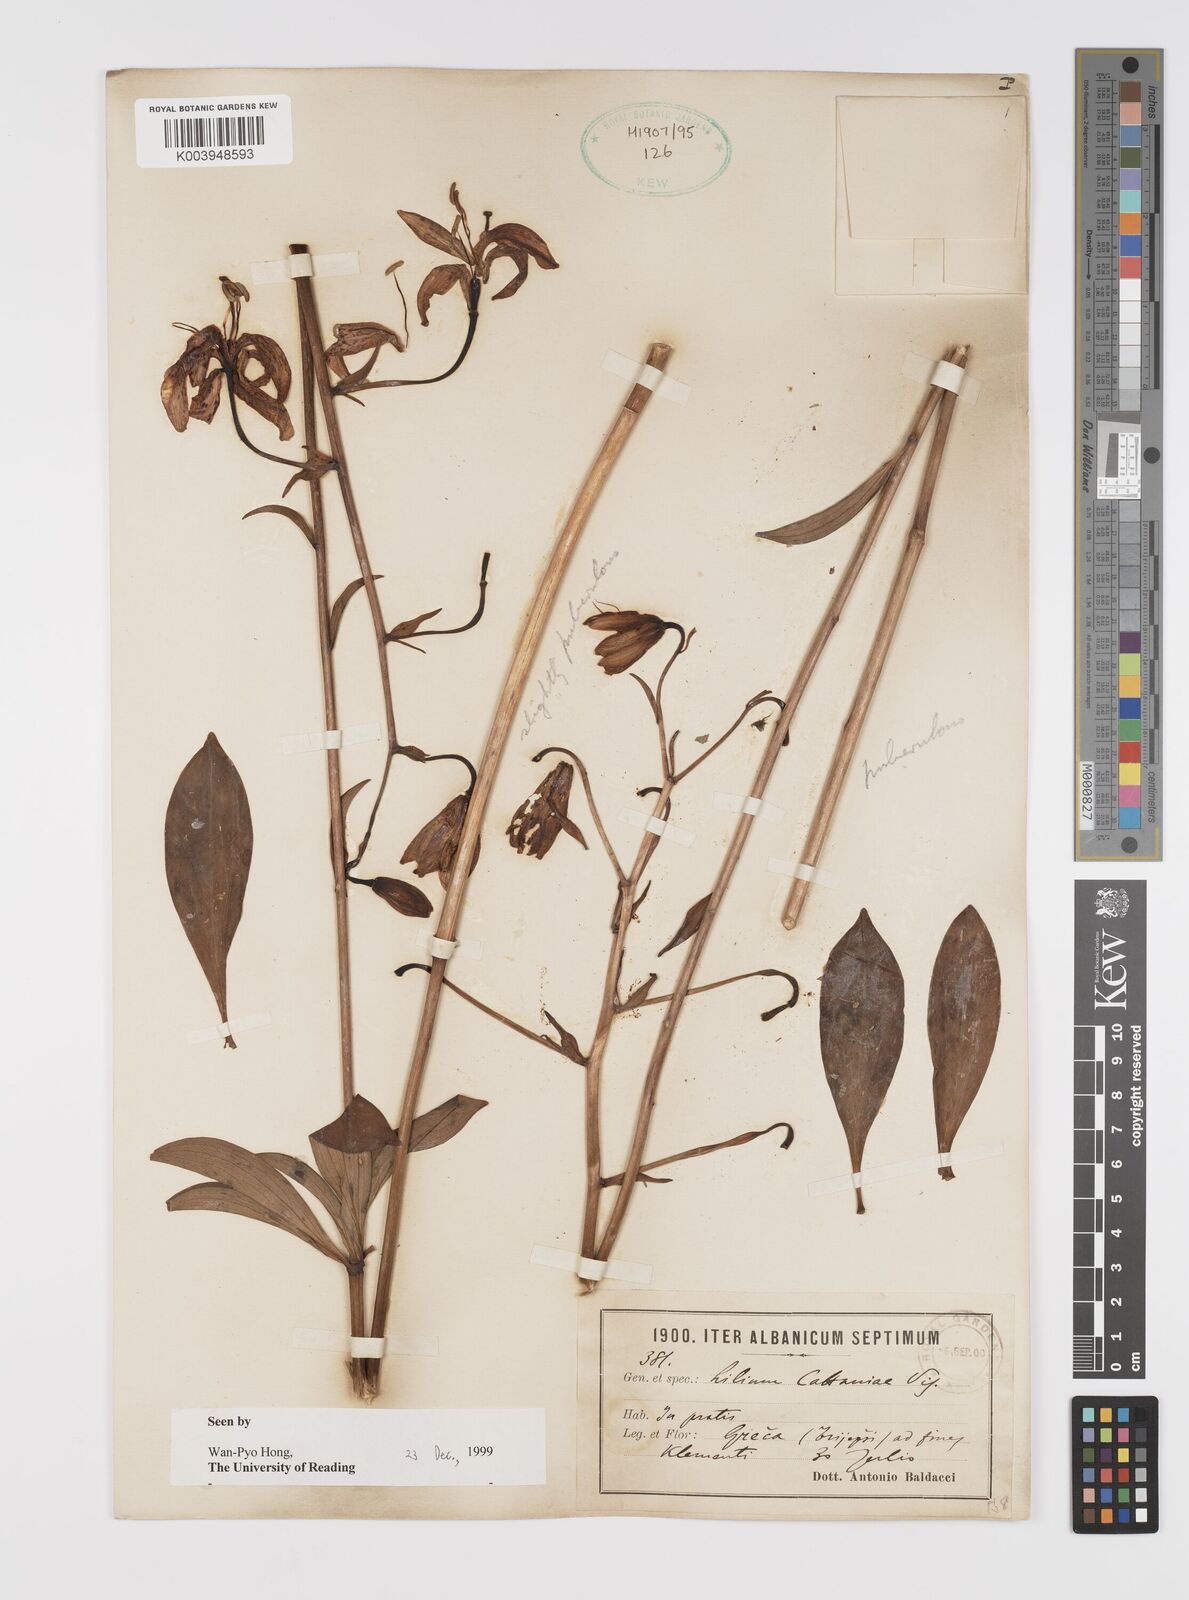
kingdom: Plantae
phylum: Tracheophyta
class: Liliopsida
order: Liliales
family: Liliaceae
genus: Lilium
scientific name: Lilium martagon
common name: Martagon lily
